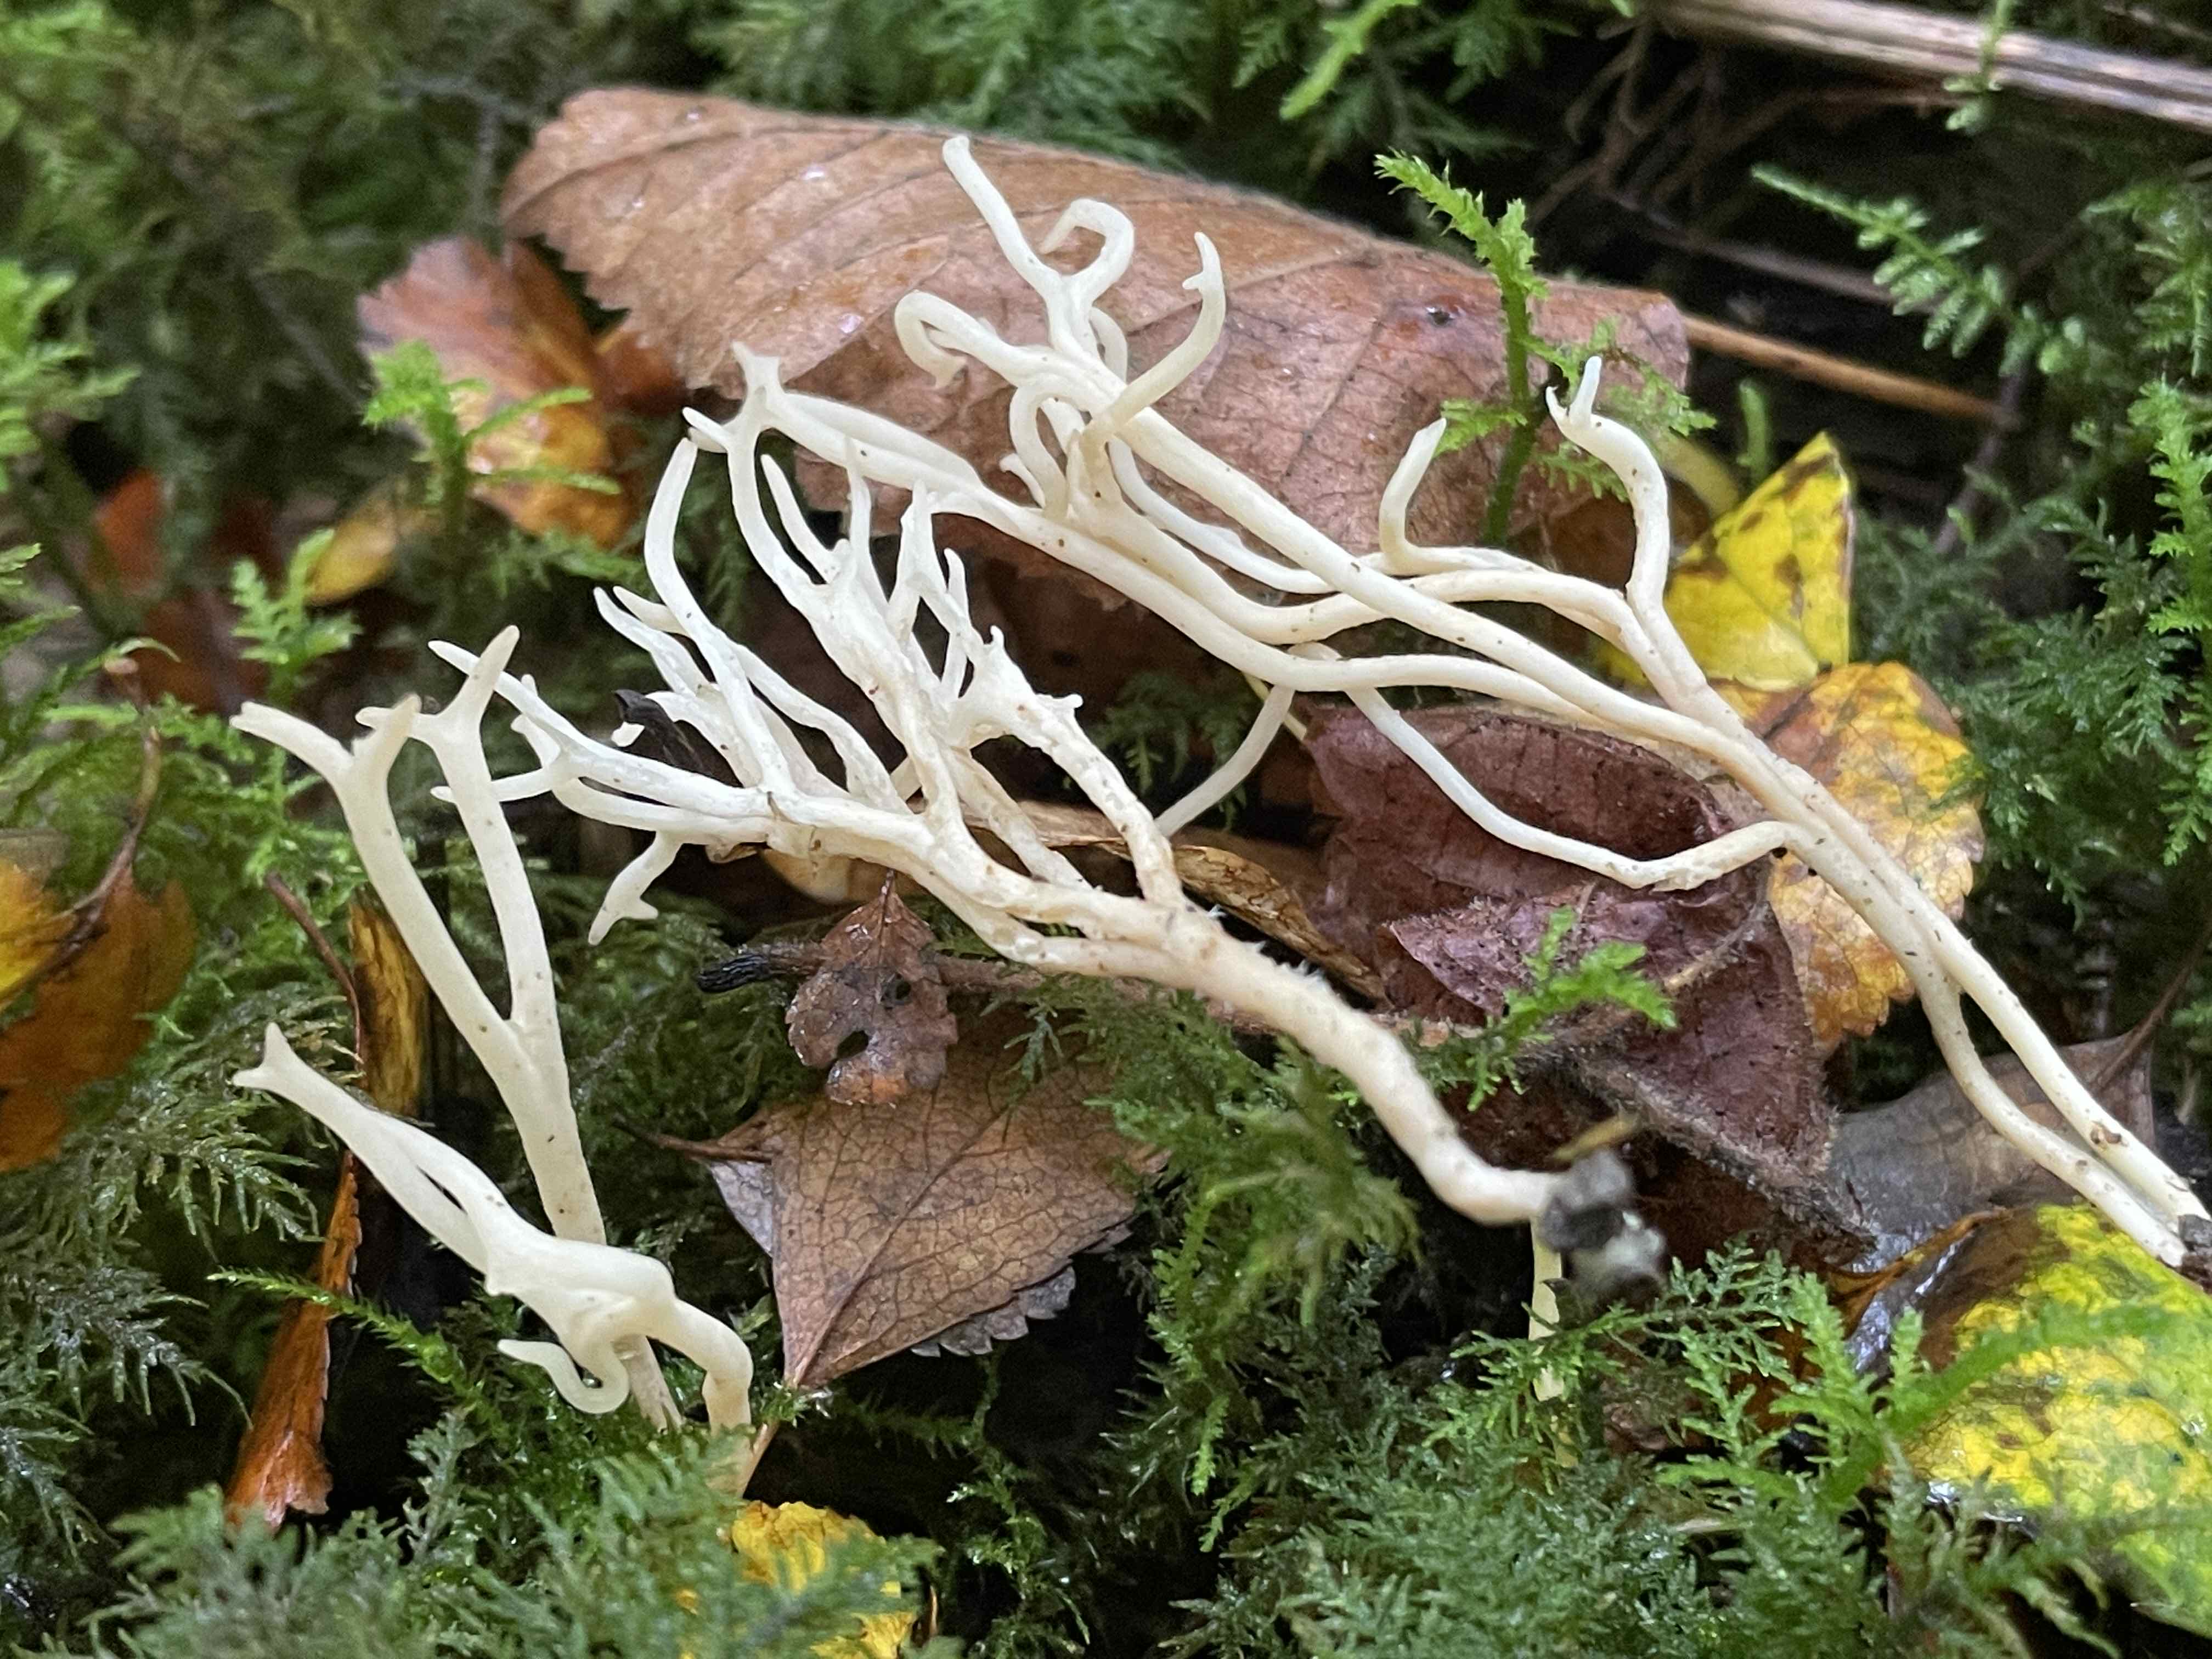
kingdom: Fungi
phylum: Basidiomycota
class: Agaricomycetes
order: Agaricales
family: Clavariaceae
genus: Ramariopsis
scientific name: Ramariopsis
